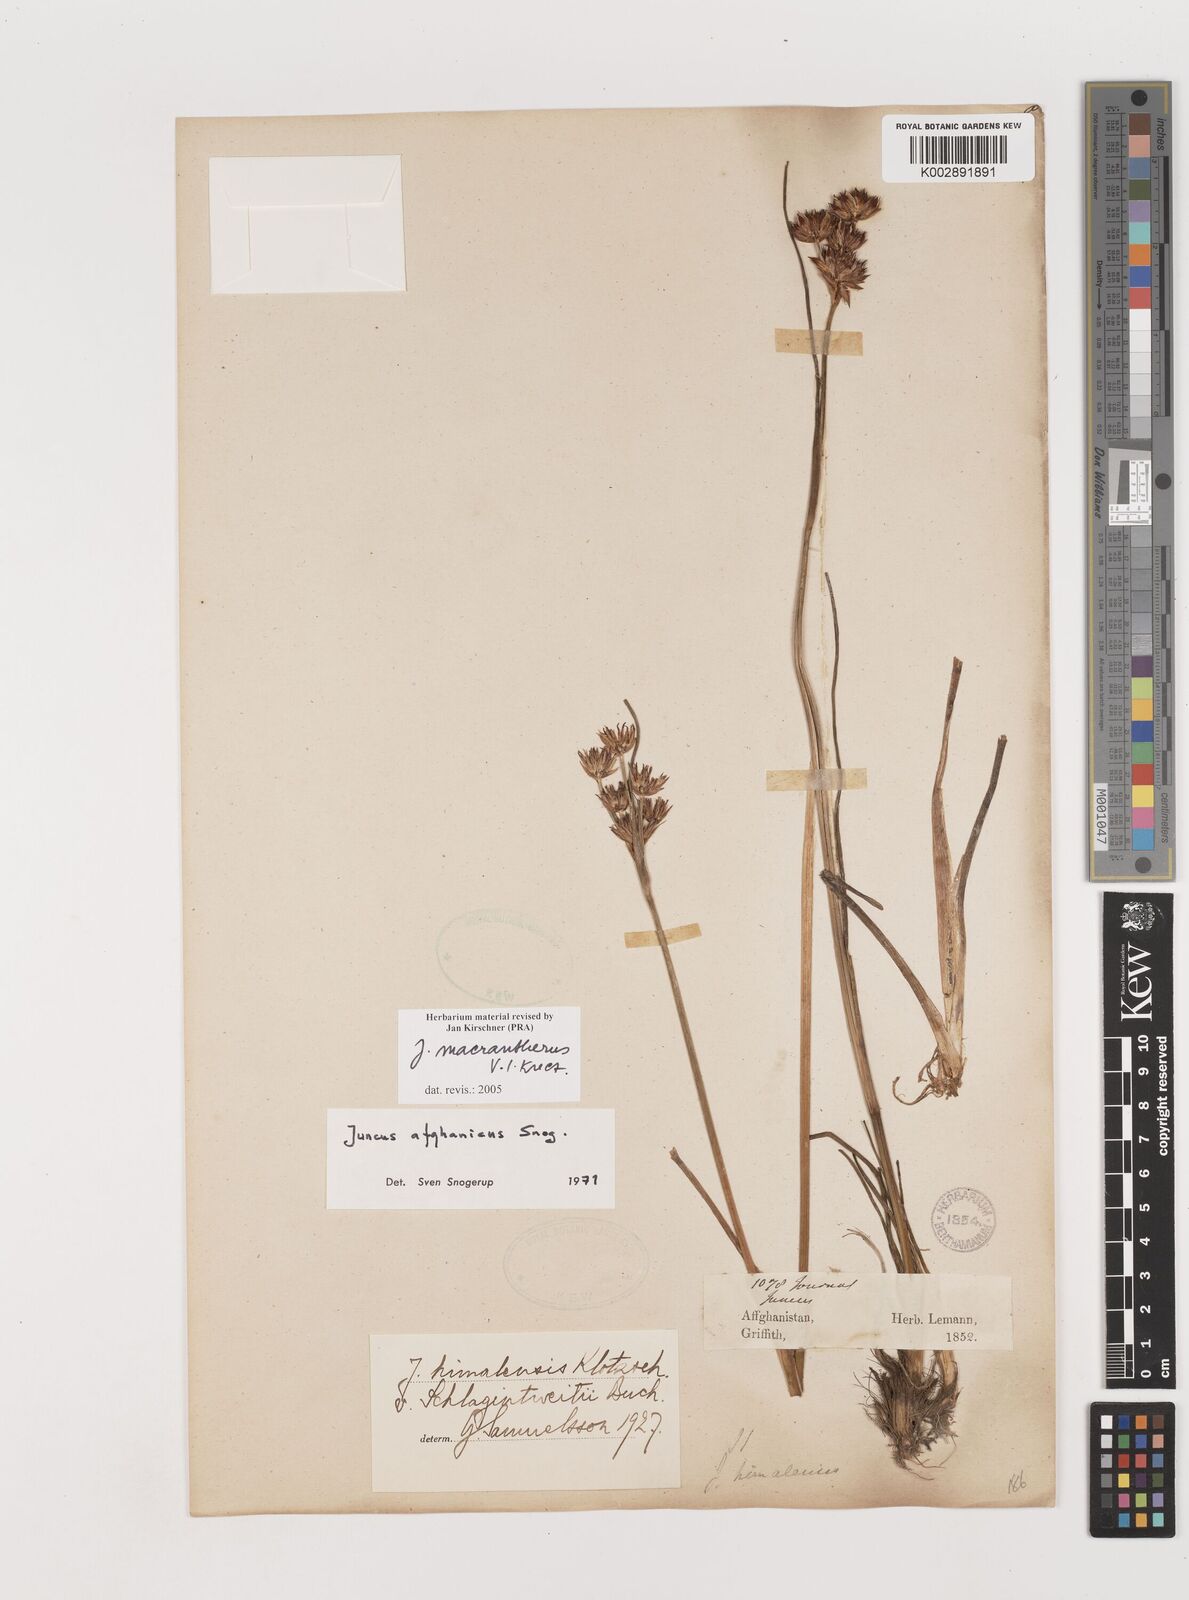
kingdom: Plantae
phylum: Tracheophyta
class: Liliopsida
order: Poales
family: Juncaceae
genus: Juncus
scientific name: Juncus macrantherus
